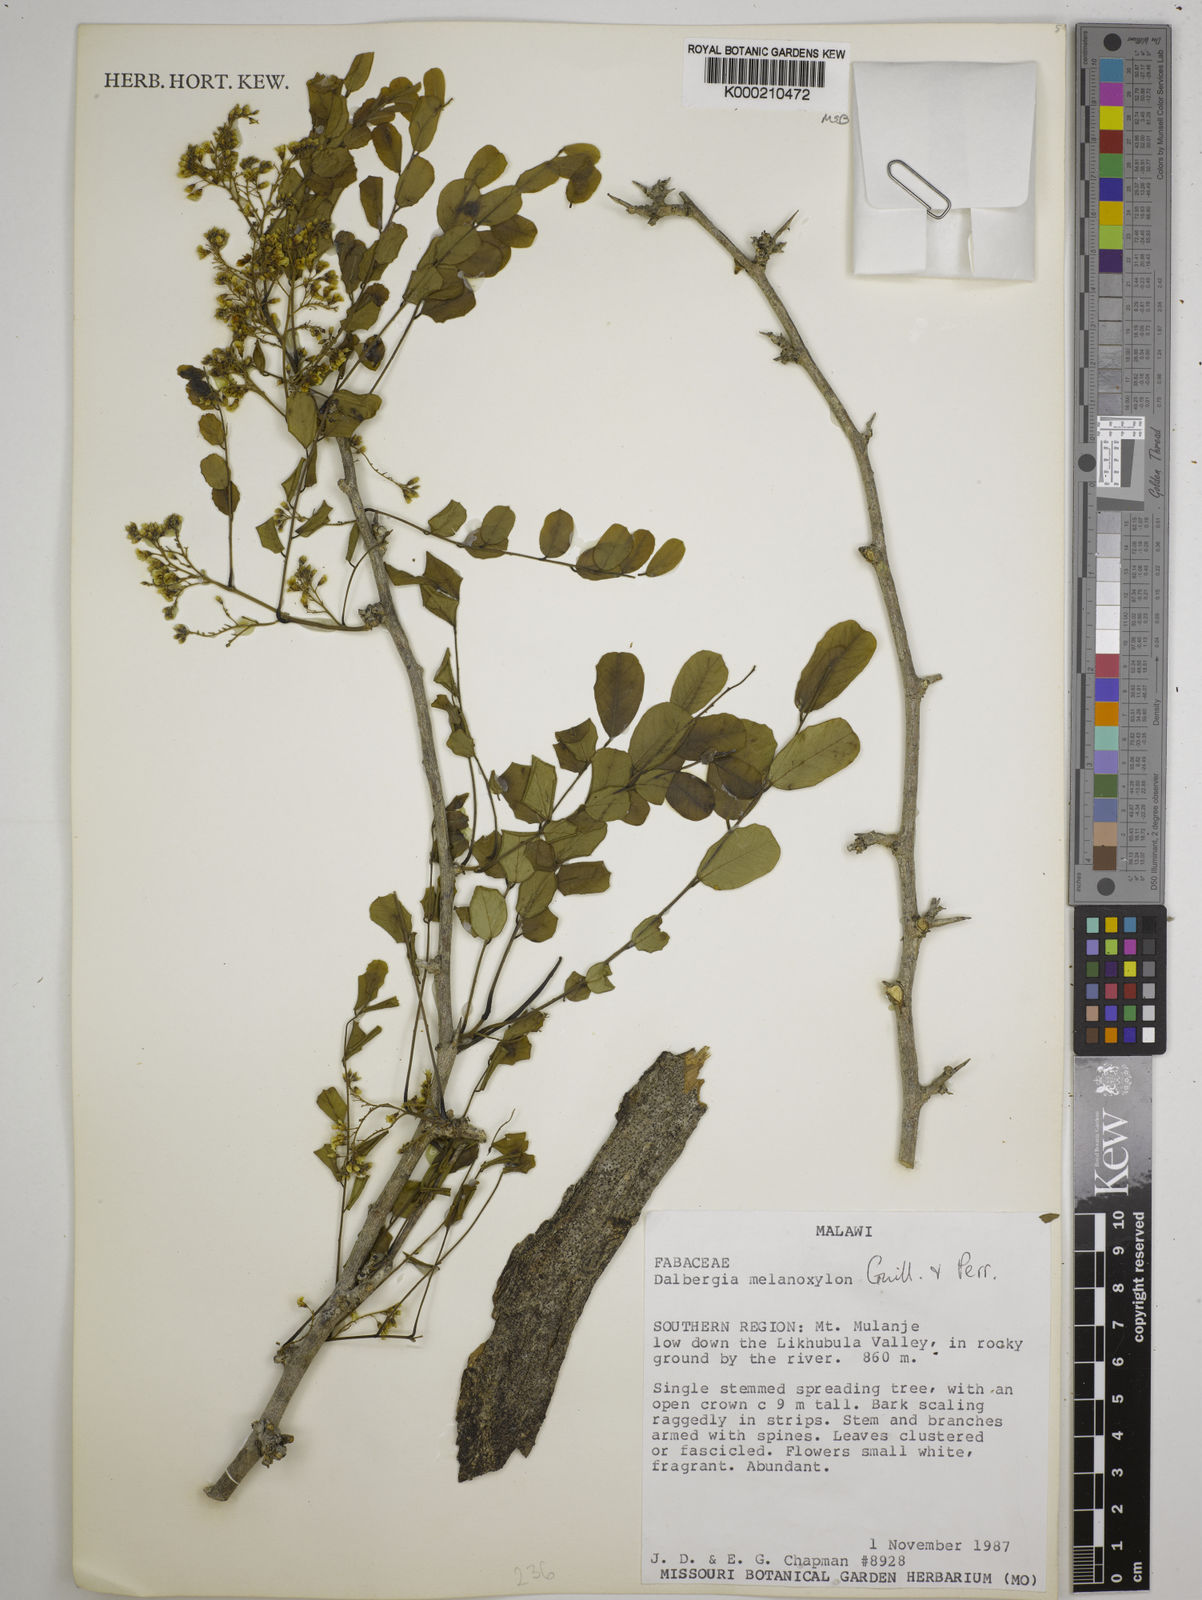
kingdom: Plantae
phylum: Tracheophyta
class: Magnoliopsida
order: Fabales
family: Fabaceae
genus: Dalbergia
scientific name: Dalbergia melanoxylon
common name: African blackwood
